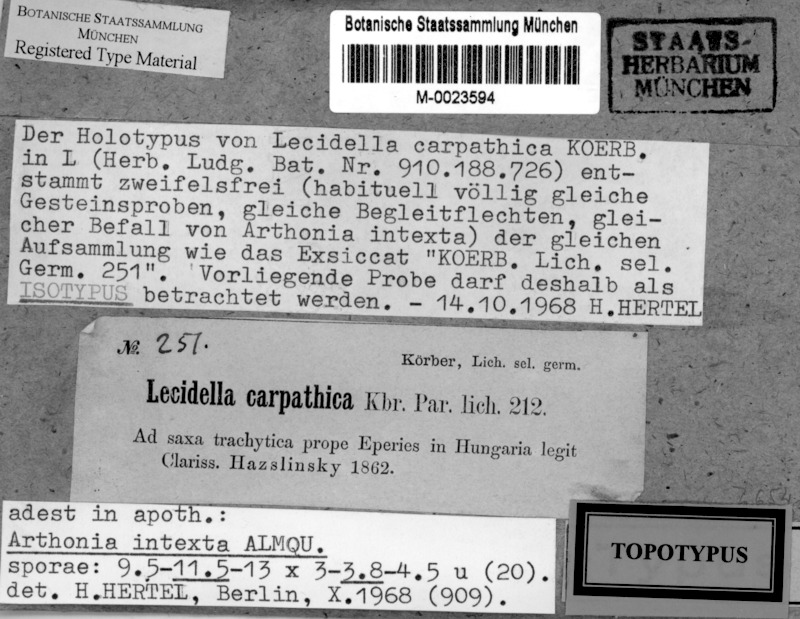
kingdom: Fungi
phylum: Ascomycota
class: Lecanoromycetes
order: Lecanorales
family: Lecanoraceae
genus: Lecidella
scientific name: Lecidella carpathica
